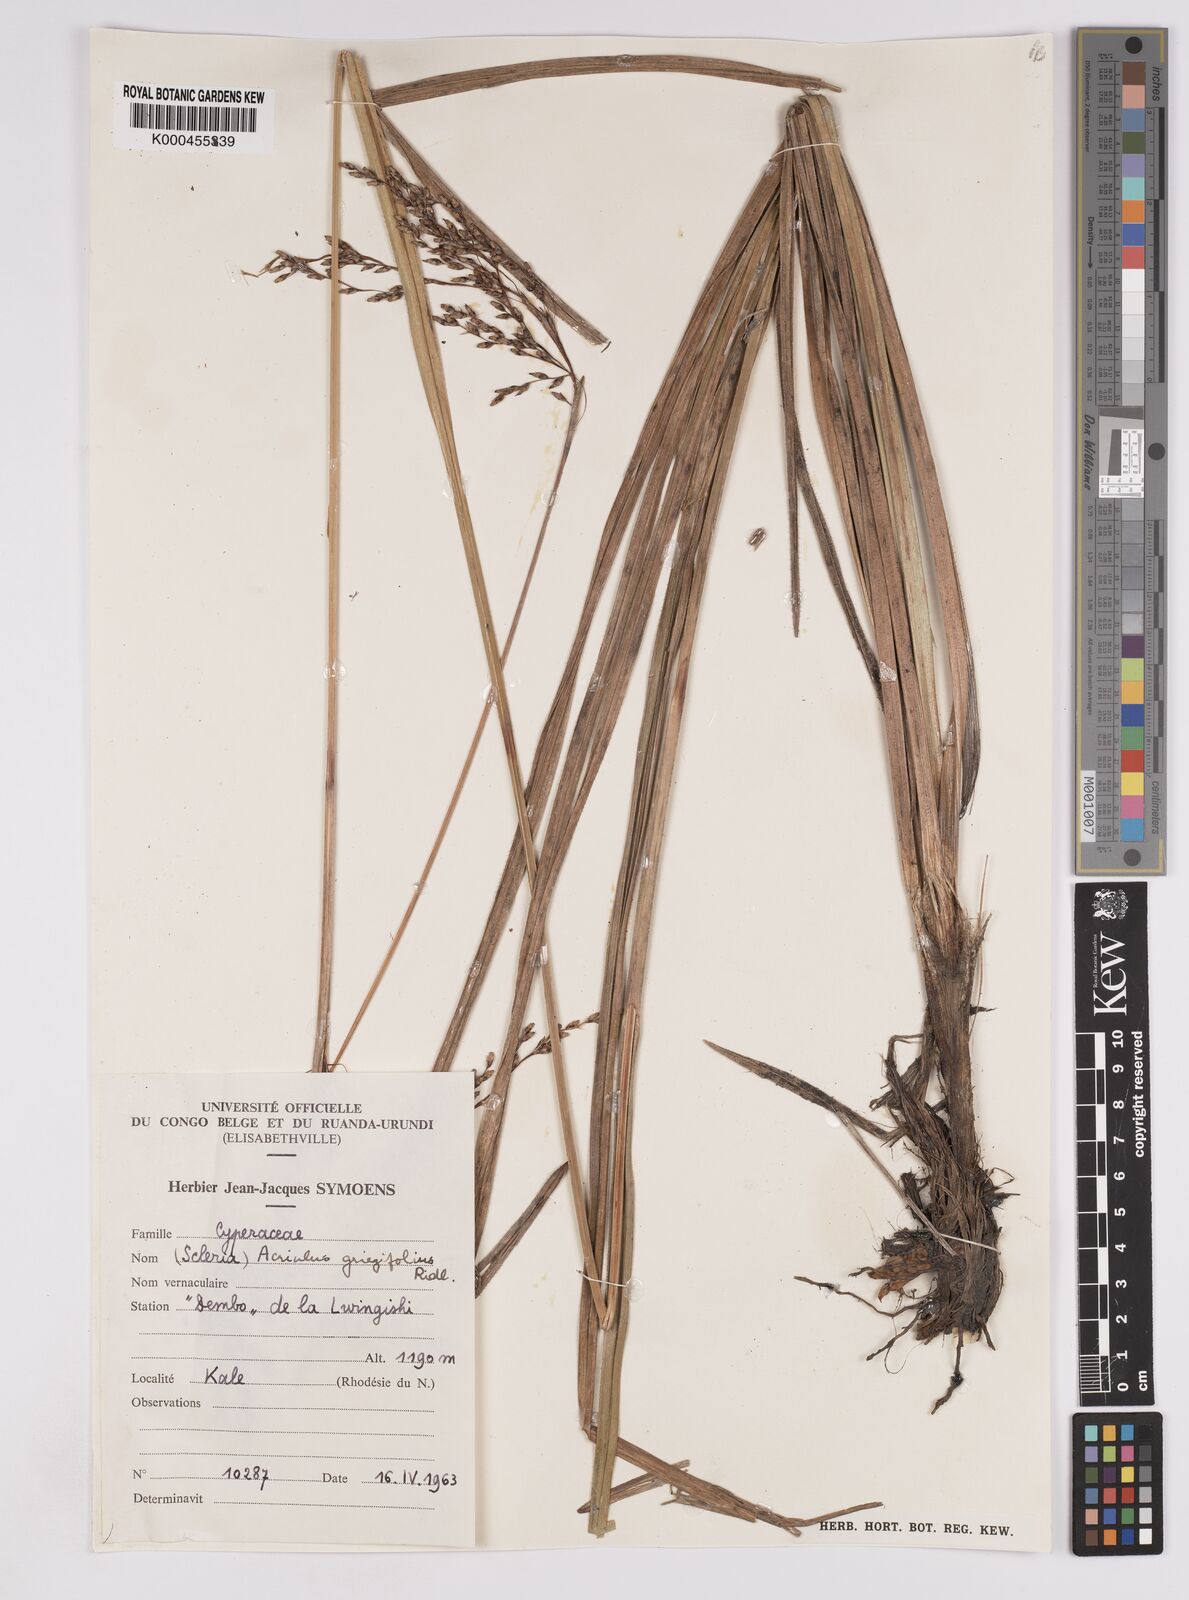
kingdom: Plantae
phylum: Tracheophyta
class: Liliopsida
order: Poales
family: Cyperaceae
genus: Scleria
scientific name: Scleria greigiifolia
